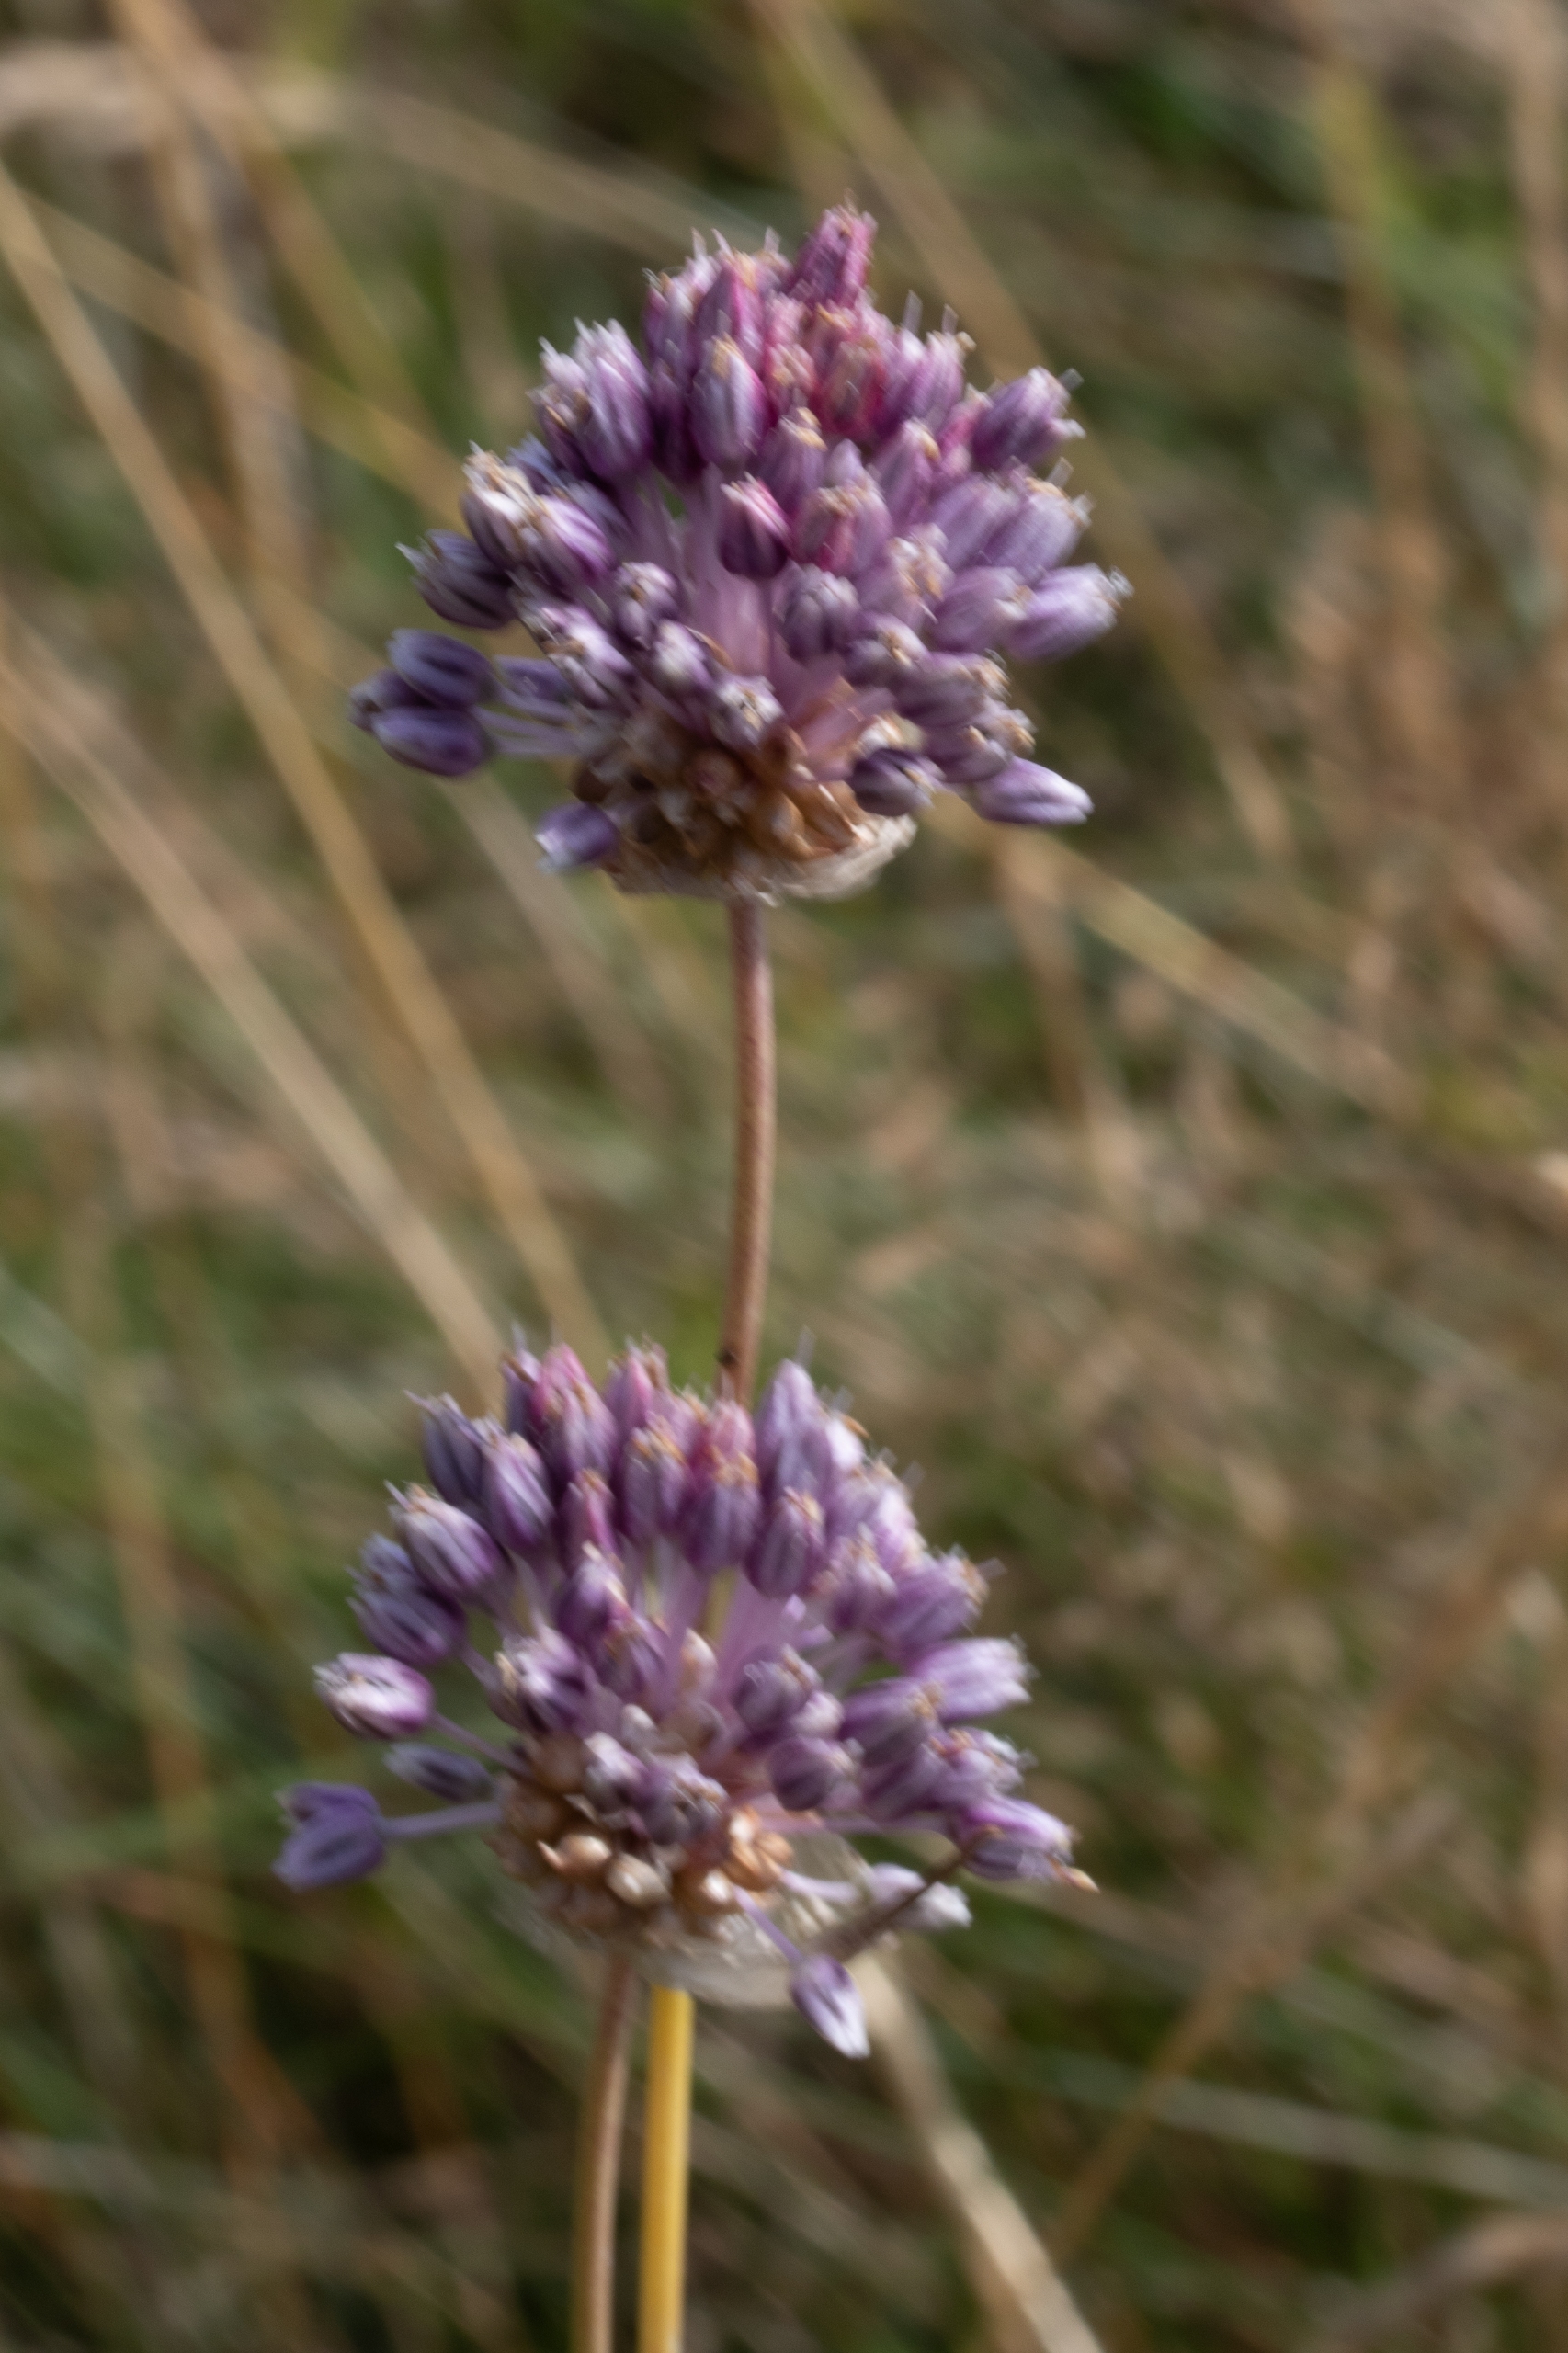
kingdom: Plantae
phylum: Tracheophyta
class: Liliopsida
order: Asparagales
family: Amaryllidaceae
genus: Allium
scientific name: Allium vineale
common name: Sand-løg
